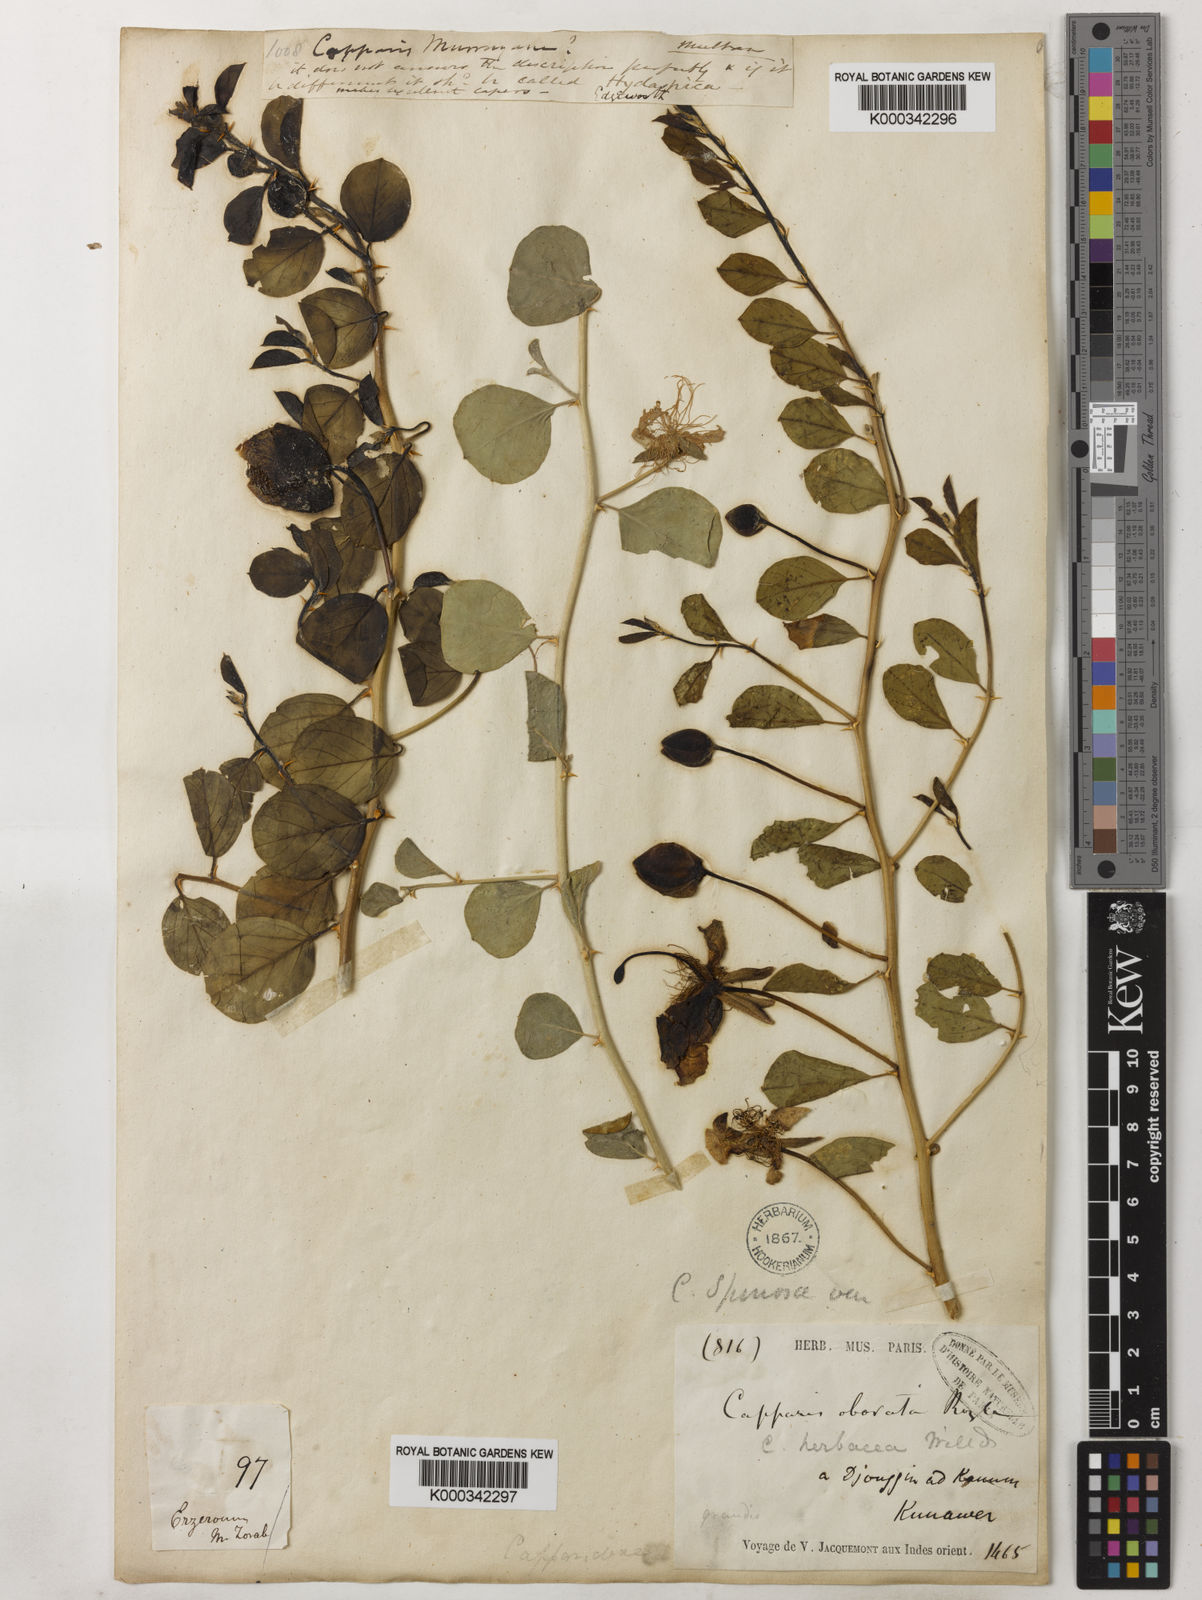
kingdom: Plantae
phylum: Tracheophyta
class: Magnoliopsida
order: Brassicales
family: Capparaceae
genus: Capparis
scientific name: Capparis spinosa
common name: Caper
